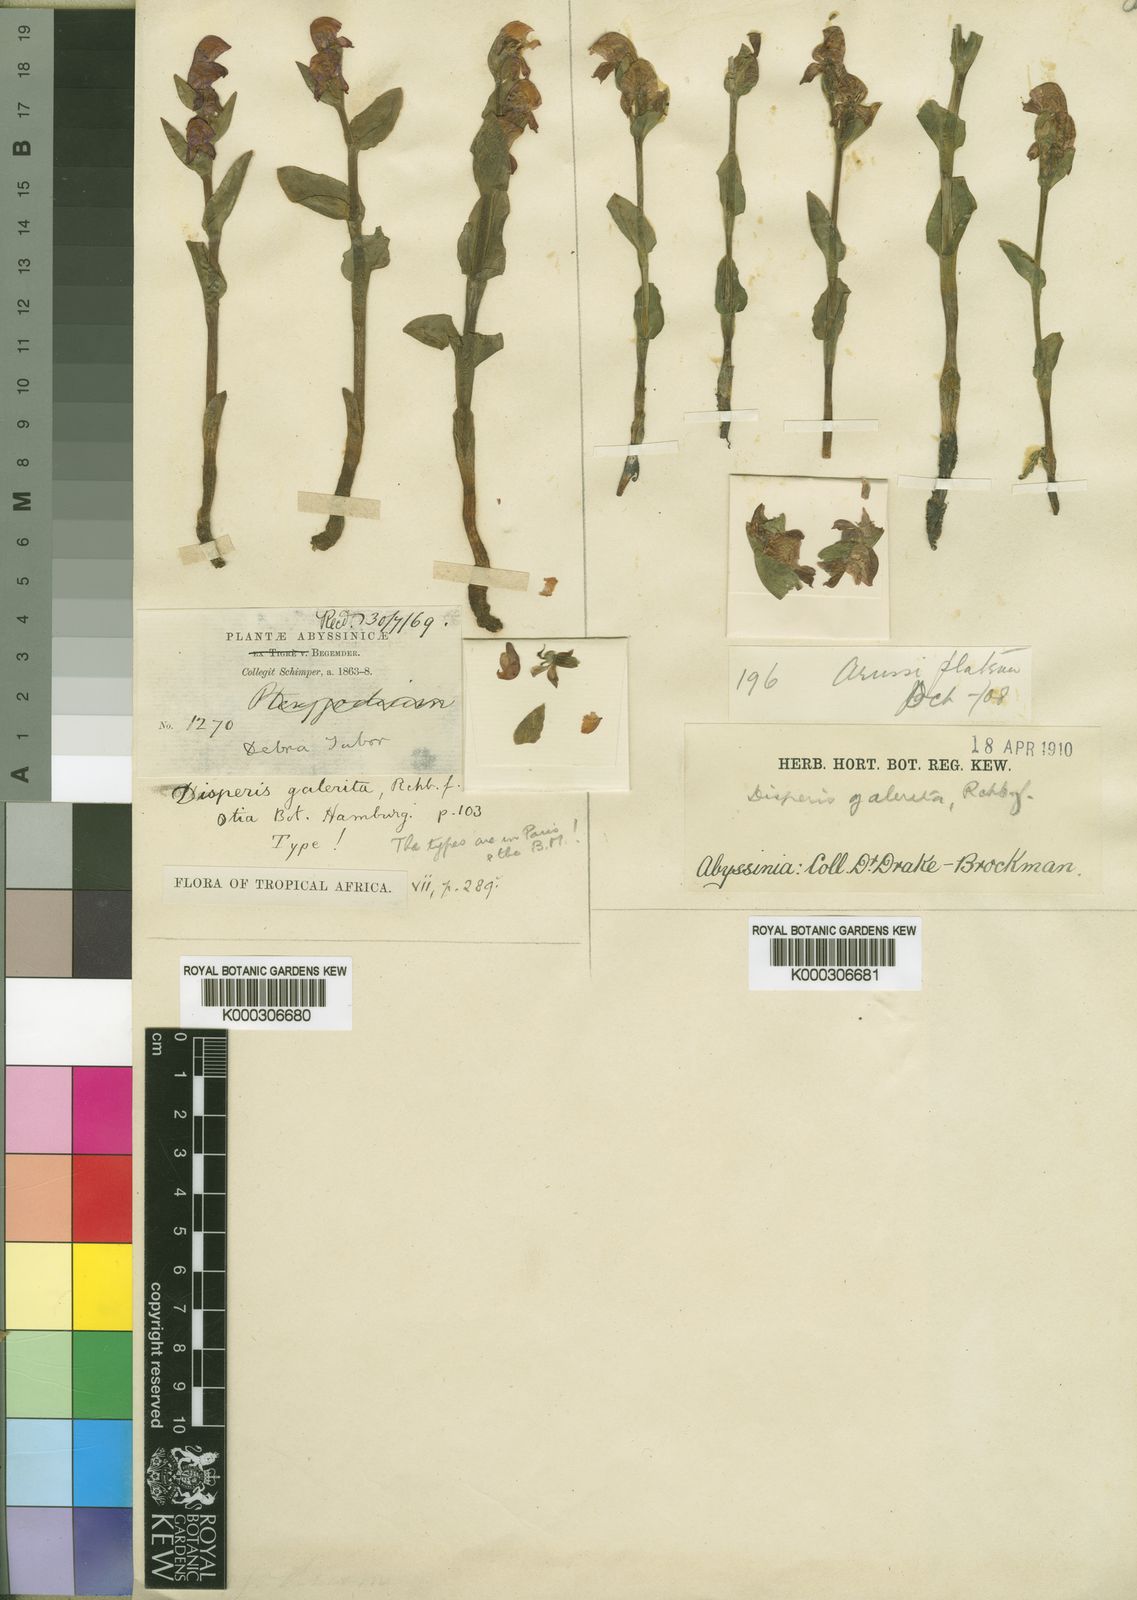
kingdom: Plantae
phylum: Tracheophyta
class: Liliopsida
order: Asparagales
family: Orchidaceae
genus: Disperis
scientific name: Disperis galerita
